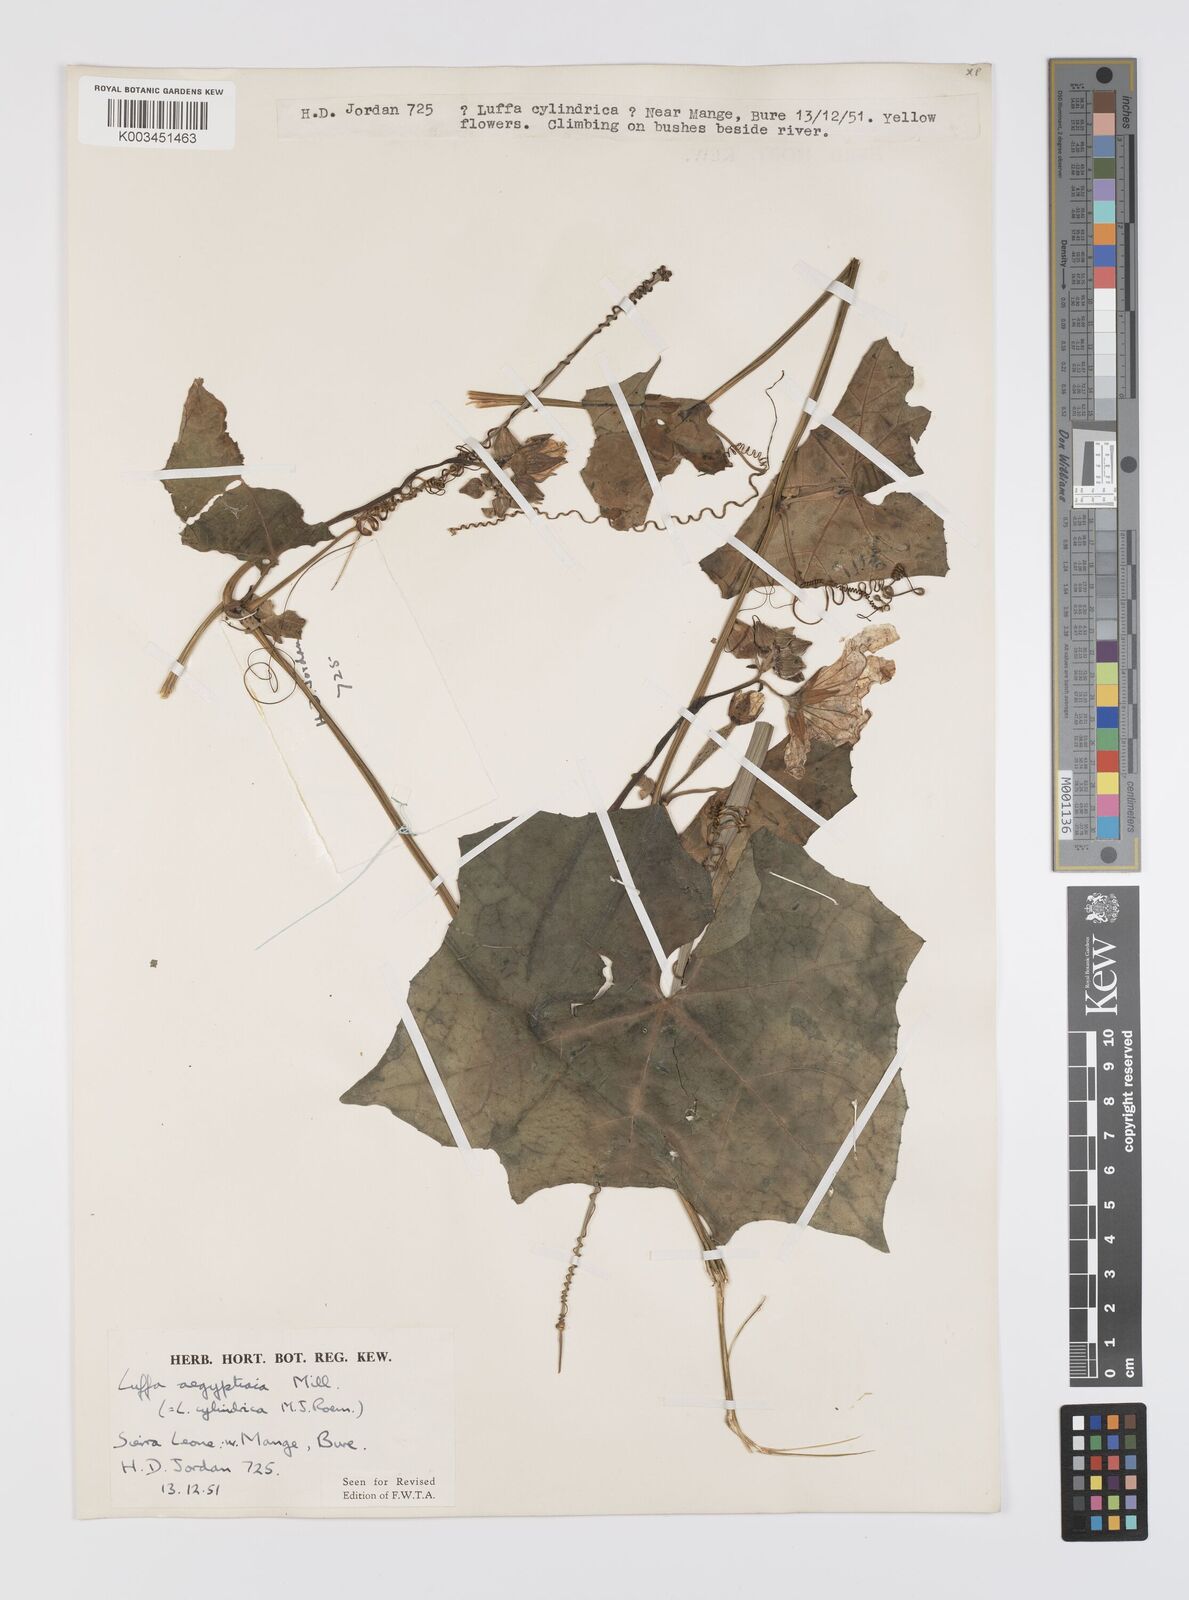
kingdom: Plantae
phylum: Tracheophyta
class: Magnoliopsida
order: Cucurbitales
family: Cucurbitaceae
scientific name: Cucurbitaceae
